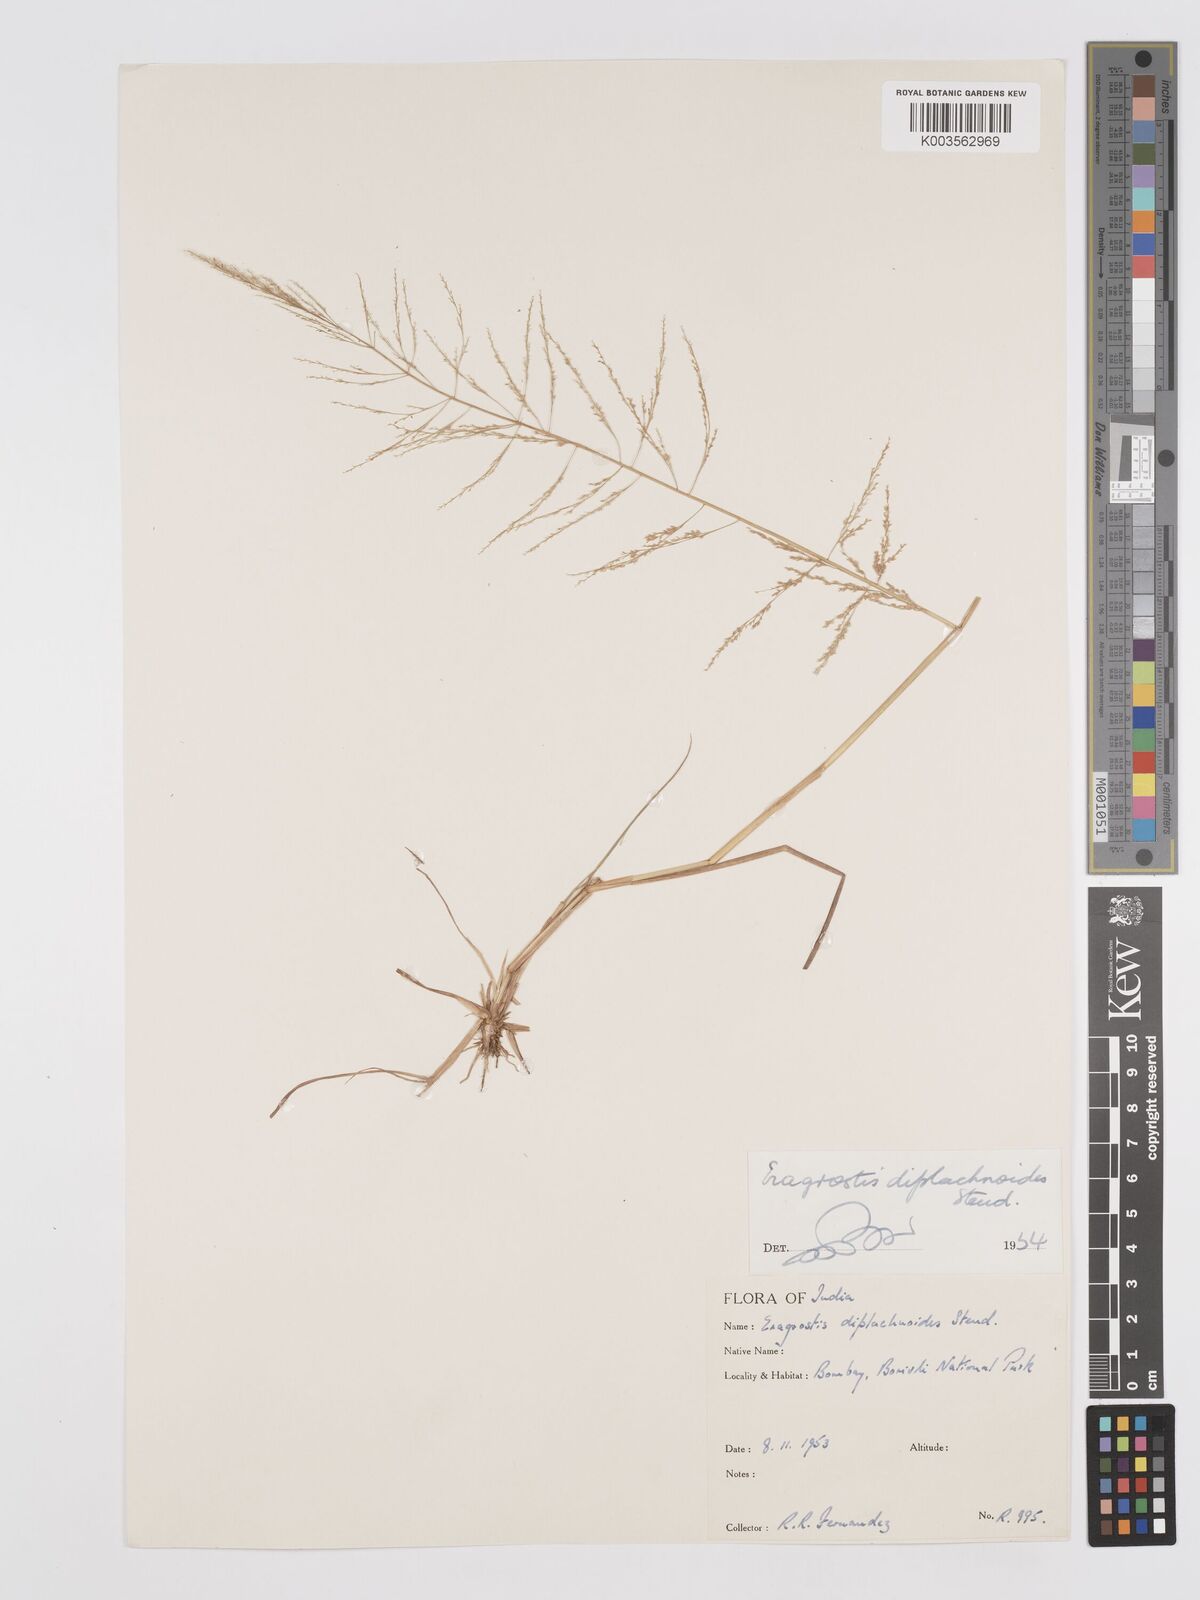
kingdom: Plantae
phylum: Tracheophyta
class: Liliopsida
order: Poales
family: Poaceae
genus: Eragrostis
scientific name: Eragrostis japonica
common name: Pond lovegrass
